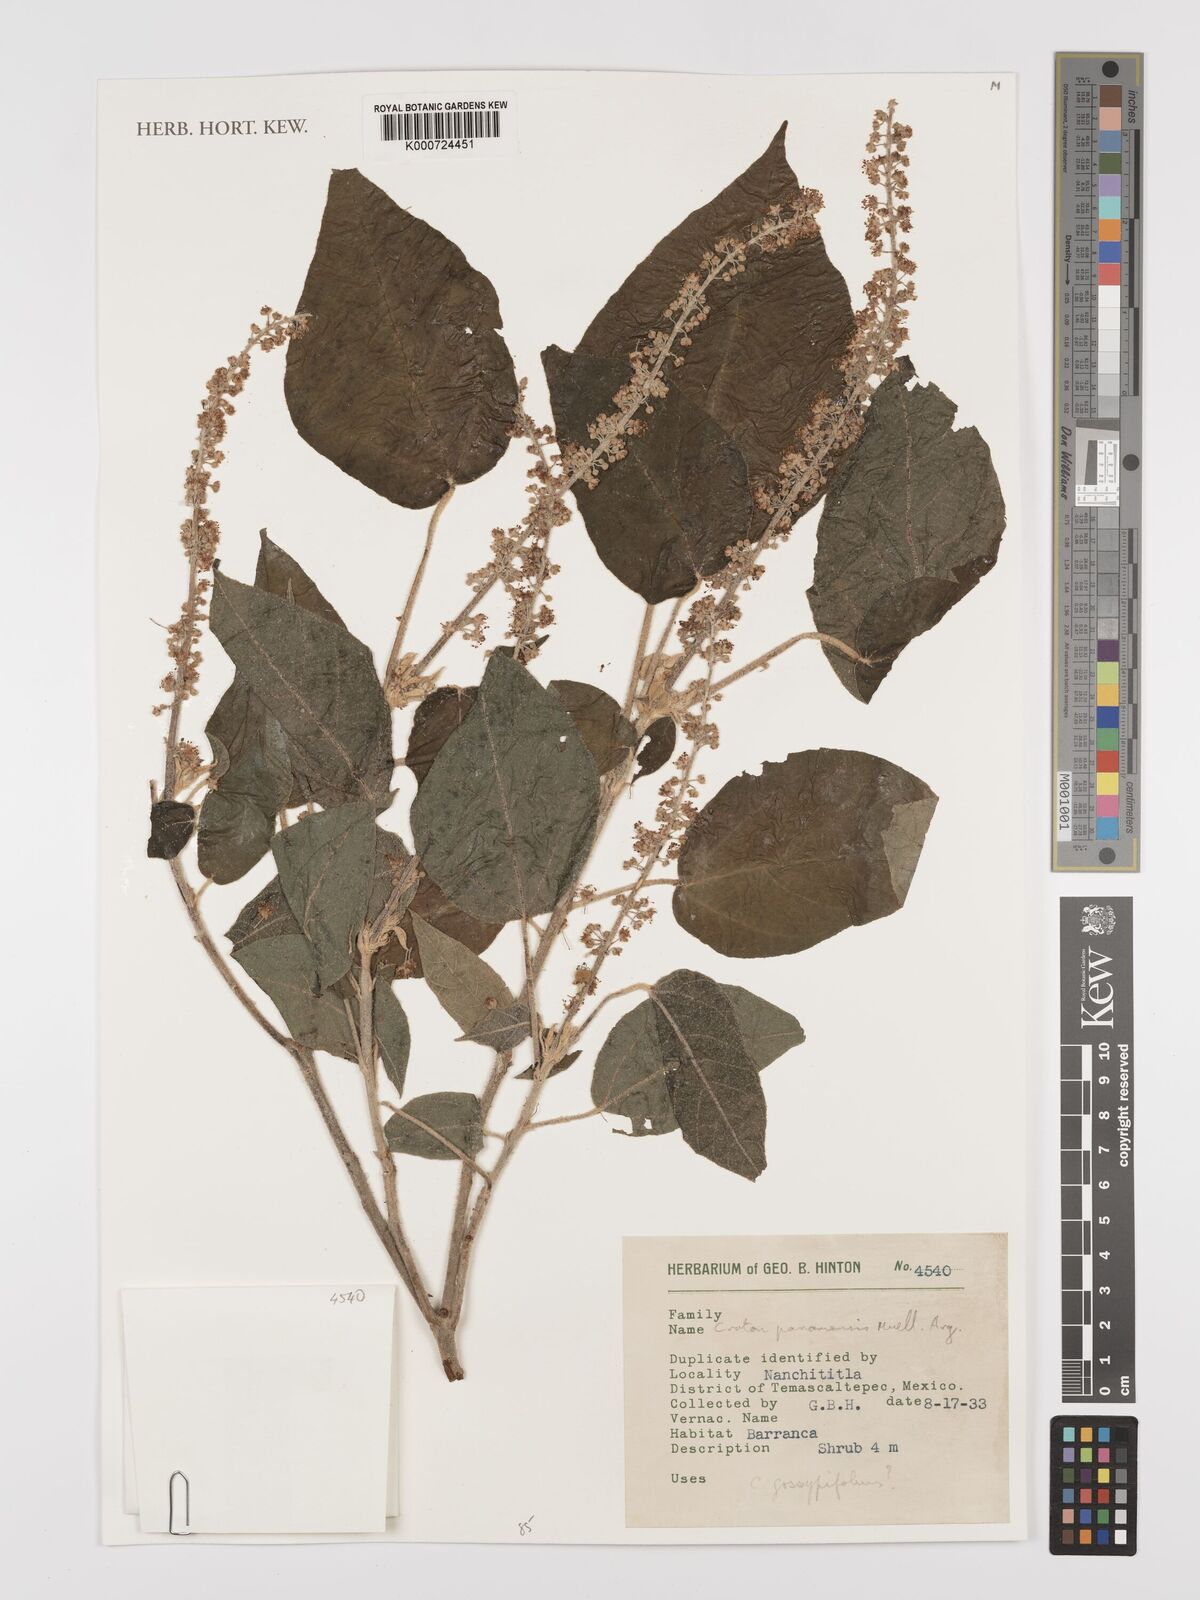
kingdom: Plantae
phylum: Tracheophyta
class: Magnoliopsida
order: Malpighiales
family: Euphorbiaceae
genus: Croton
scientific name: Croton draco
